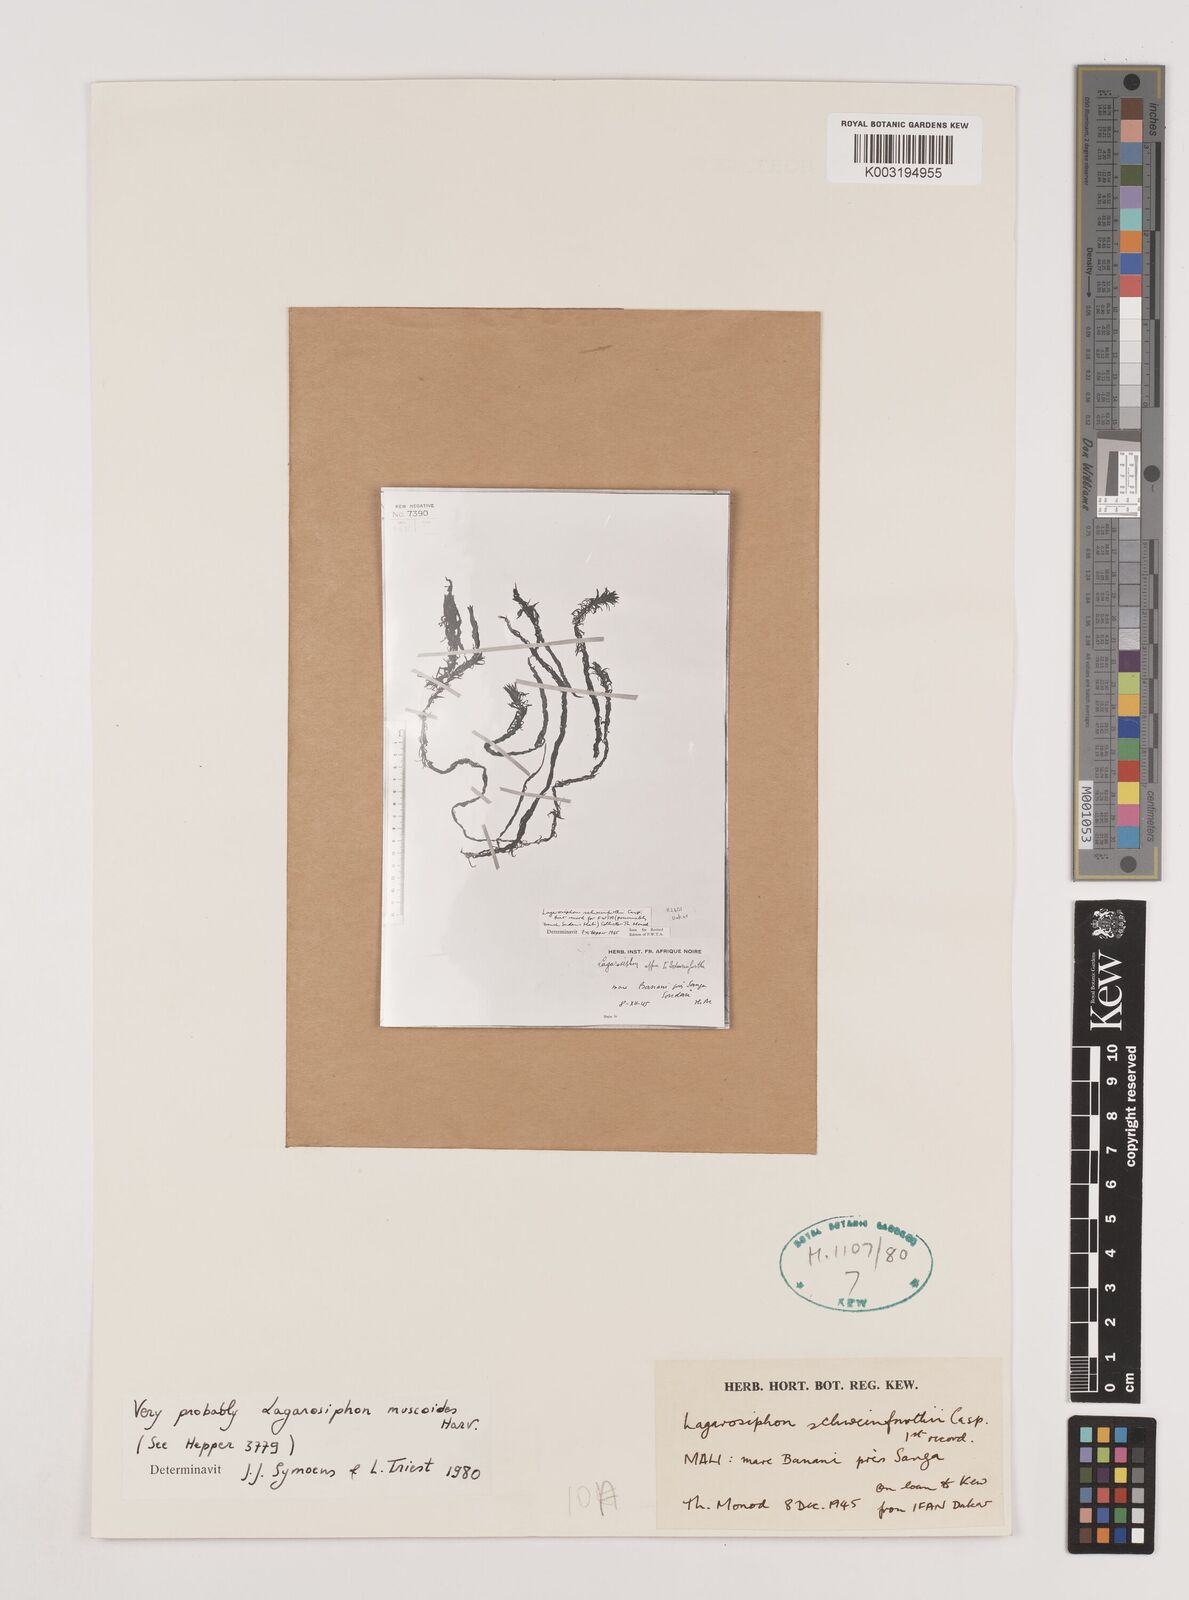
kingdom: Plantae
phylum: Tracheophyta
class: Liliopsida
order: Alismatales
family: Hydrocharitaceae
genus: Lagarosiphon
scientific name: Lagarosiphon muscoides
